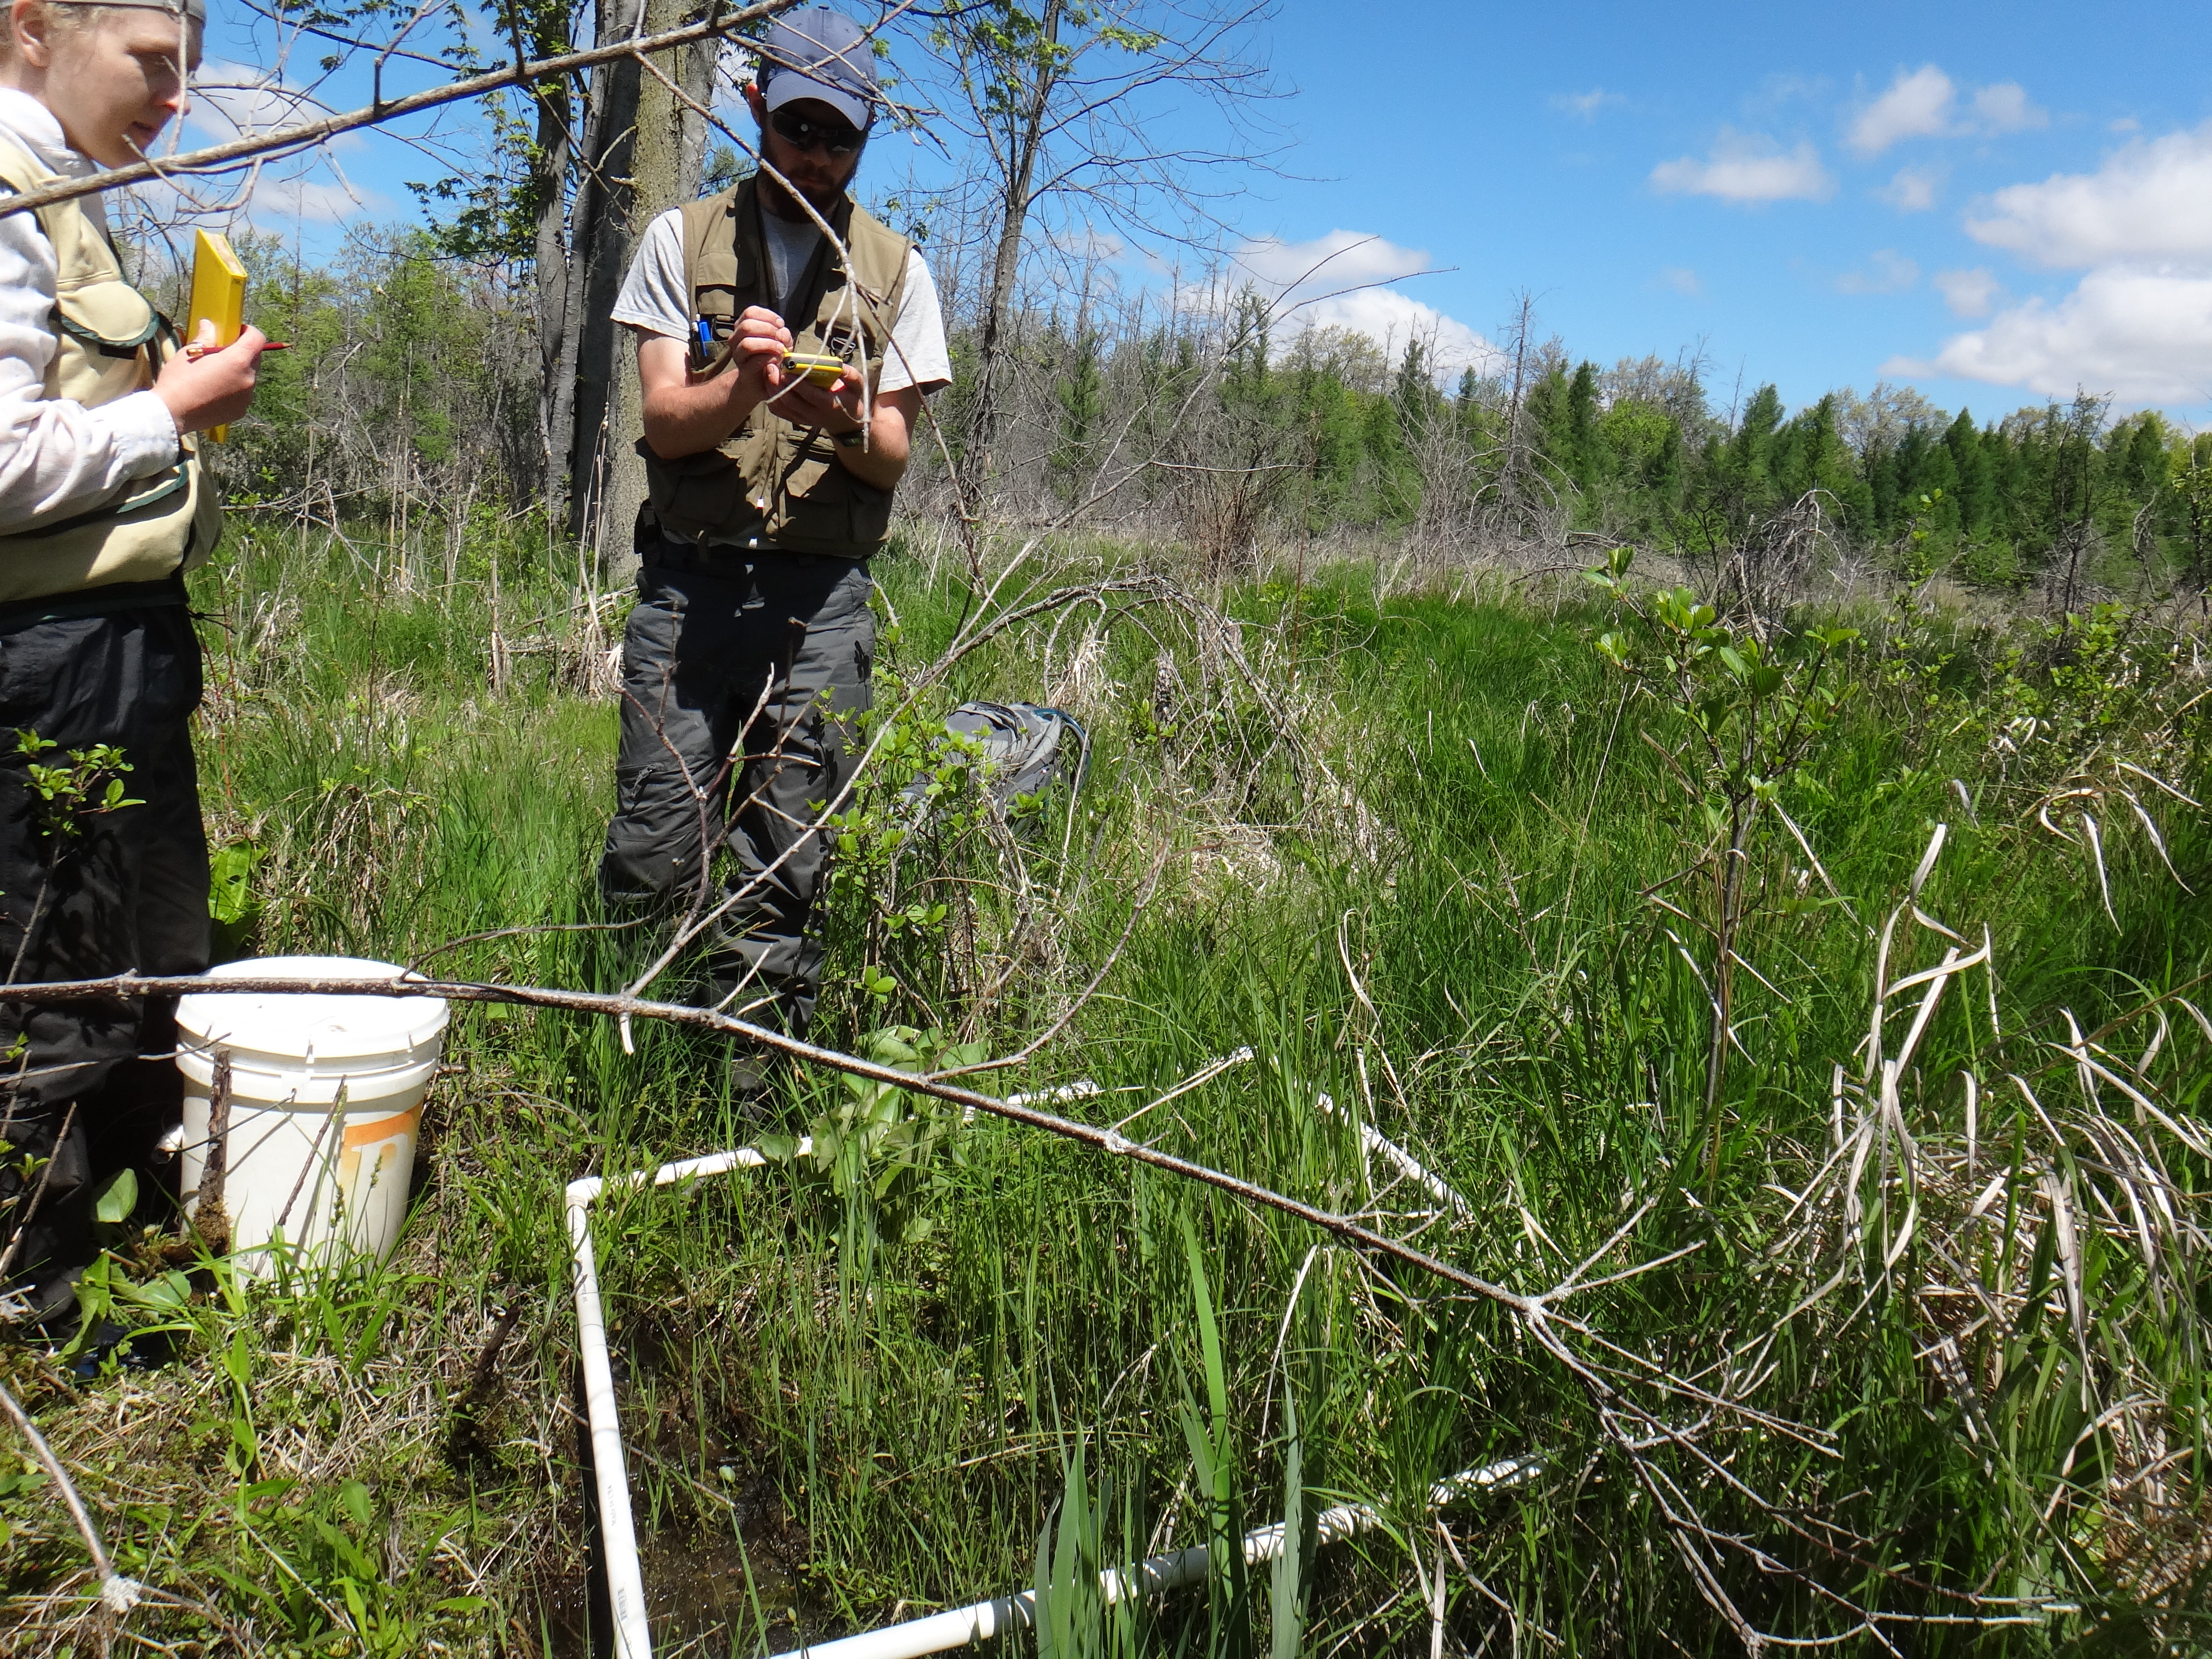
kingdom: Plantae
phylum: Tracheophyta
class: Magnoliopsida
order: Ranunculales
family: Ranunculaceae
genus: Caltha
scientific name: Caltha palustris
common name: Marsh marigold
